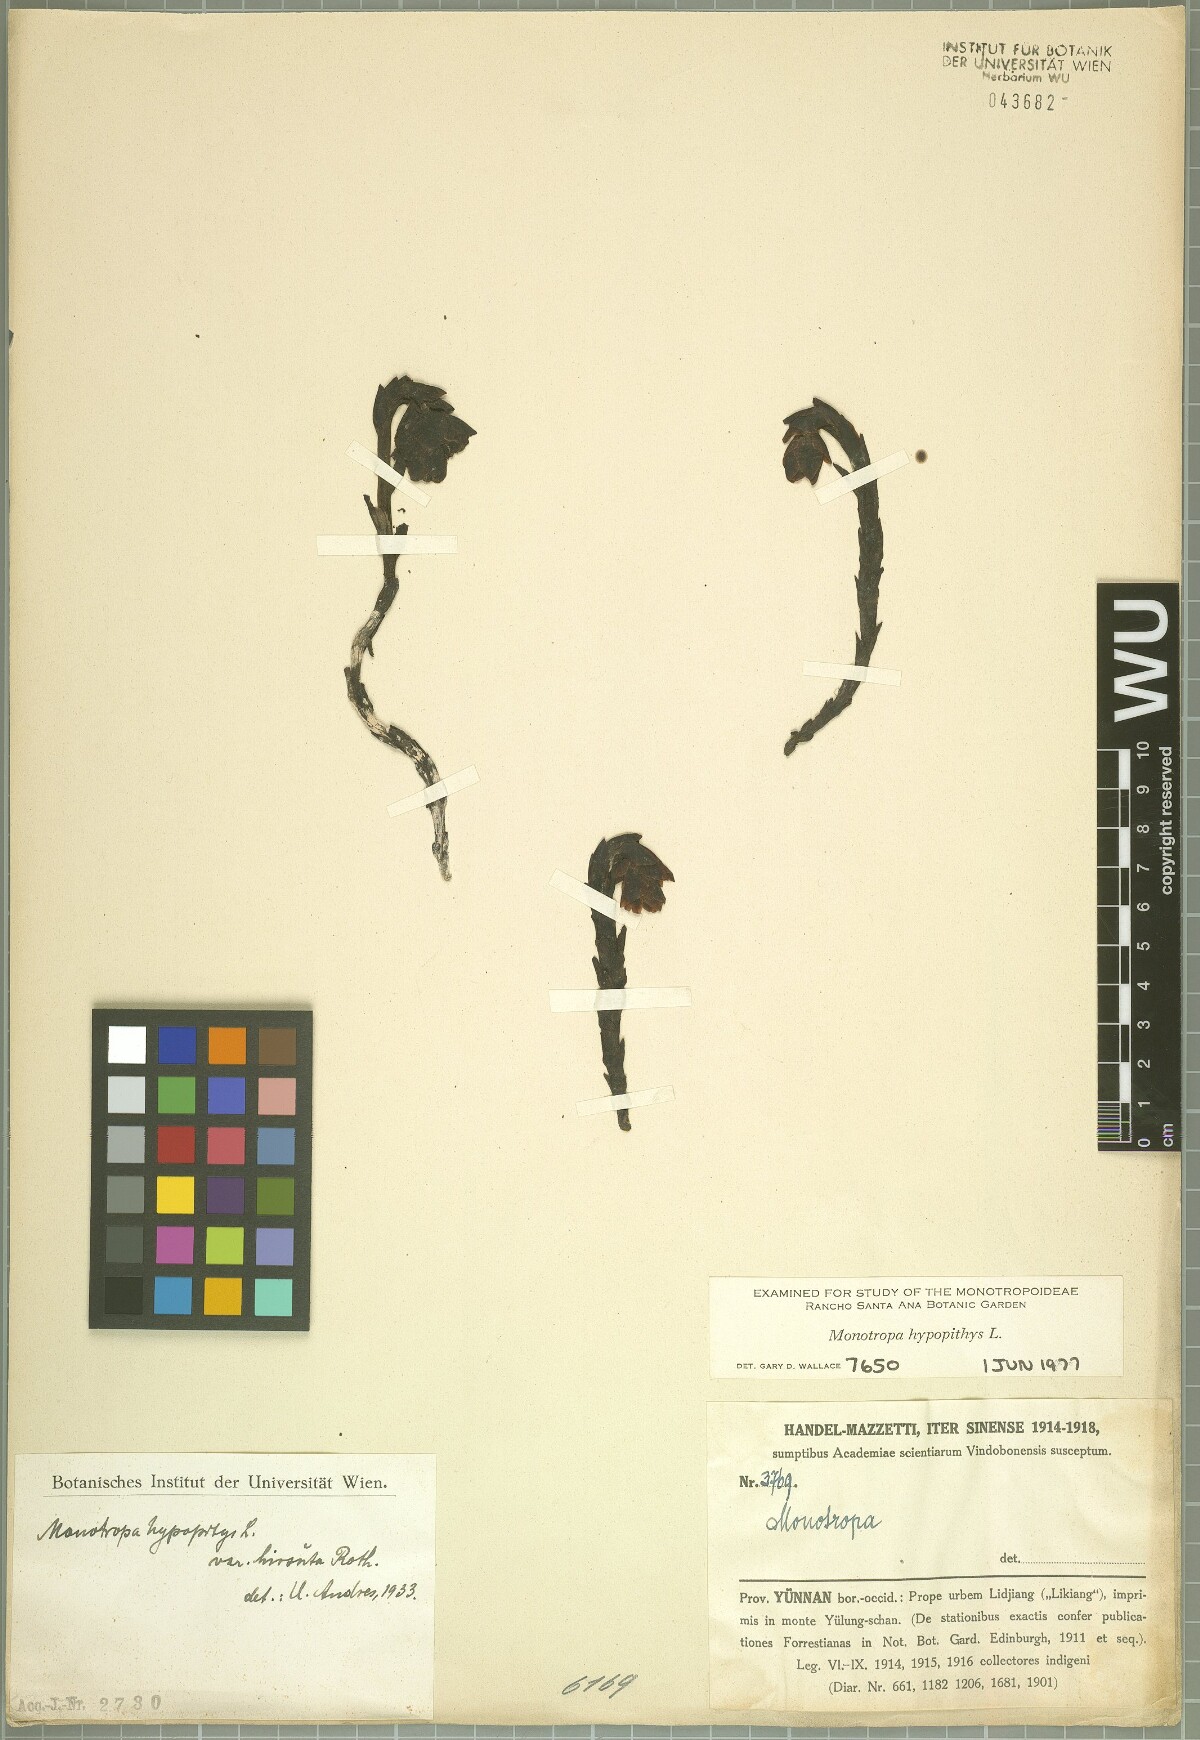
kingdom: Plantae
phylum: Tracheophyta
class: Magnoliopsida
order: Ericales
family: Ericaceae
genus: Hypopitys
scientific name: Hypopitys monotropa
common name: Yellow bird's-nest
